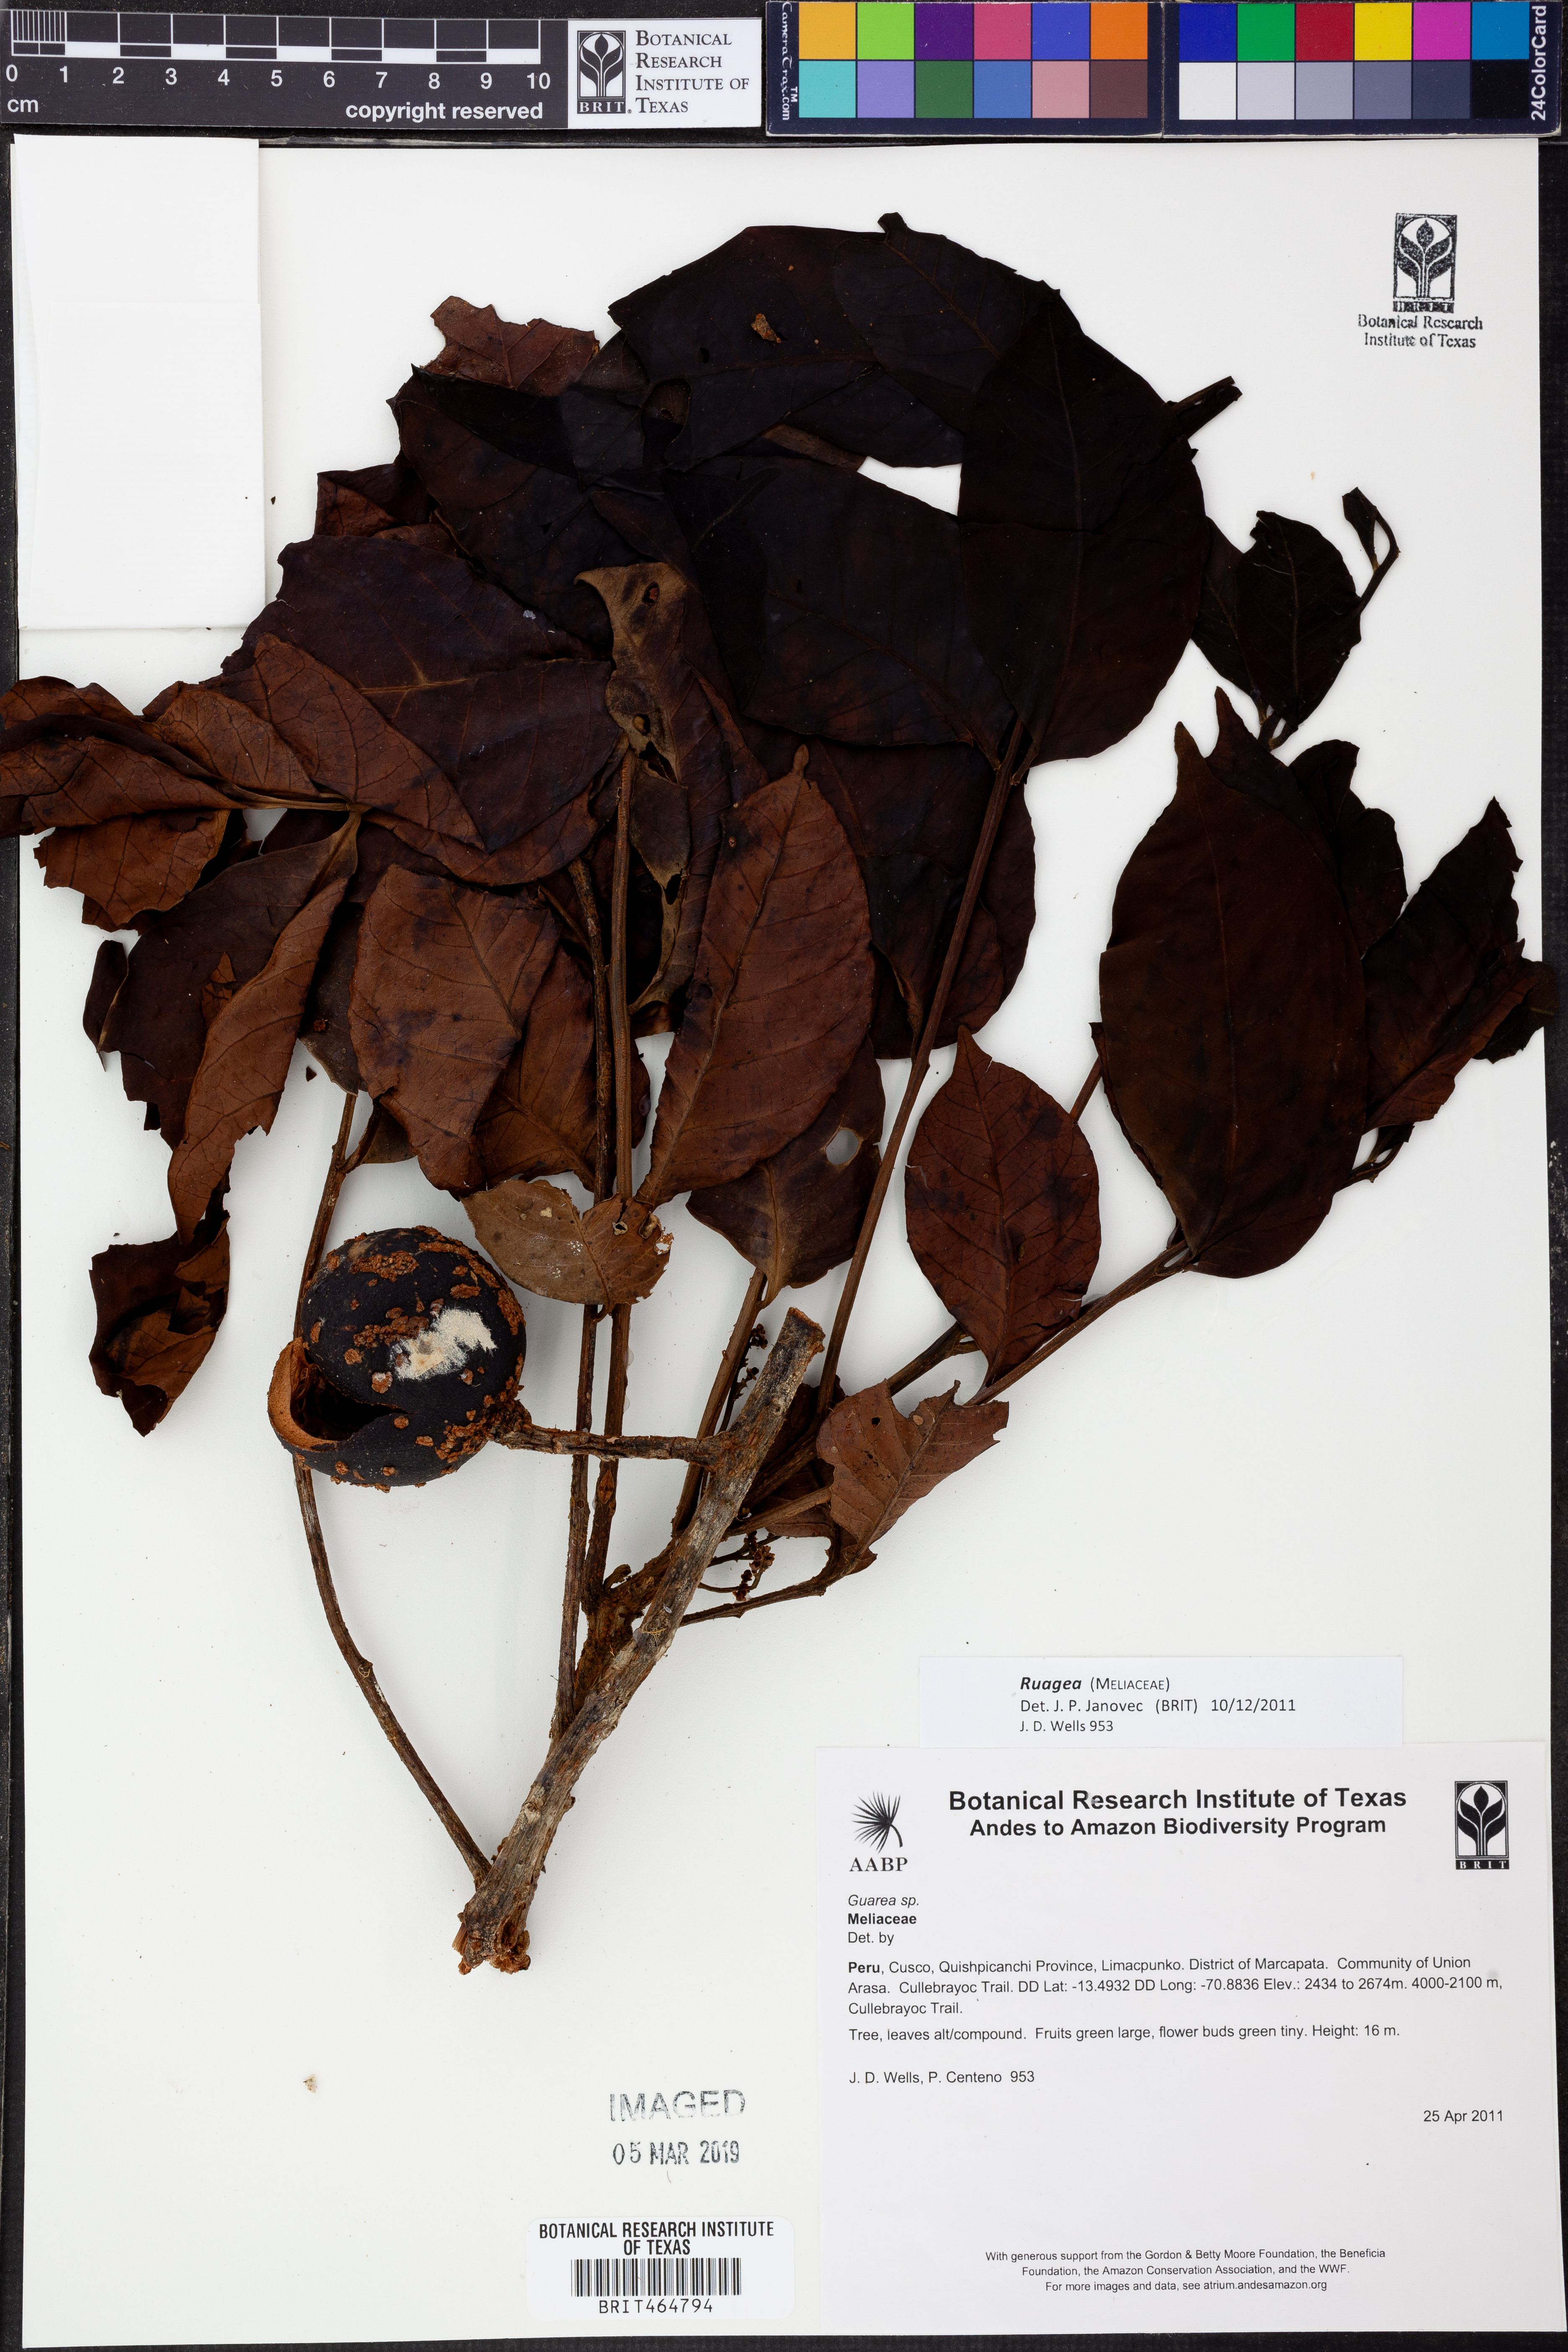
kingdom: Plantae
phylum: Tracheophyta
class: Magnoliopsida
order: Sapindales
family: Meliaceae
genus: Ruagea
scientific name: Ruagea
